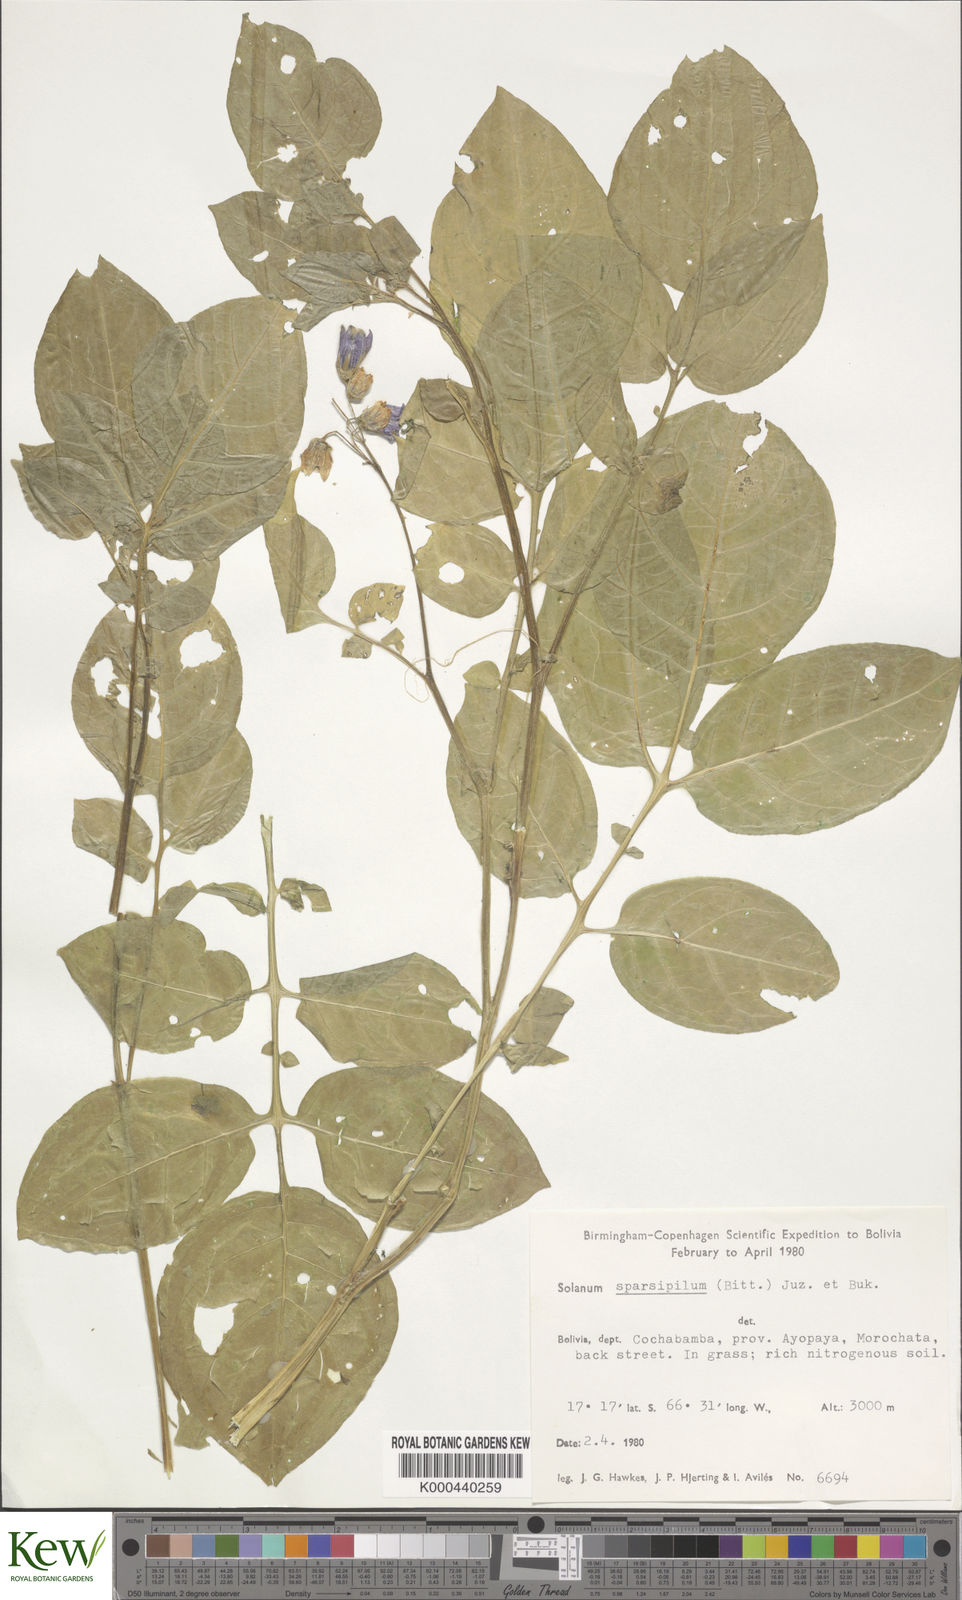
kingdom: Plantae
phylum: Tracheophyta
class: Magnoliopsida
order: Solanales
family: Solanaceae
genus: Solanum
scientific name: Solanum brevicaule
